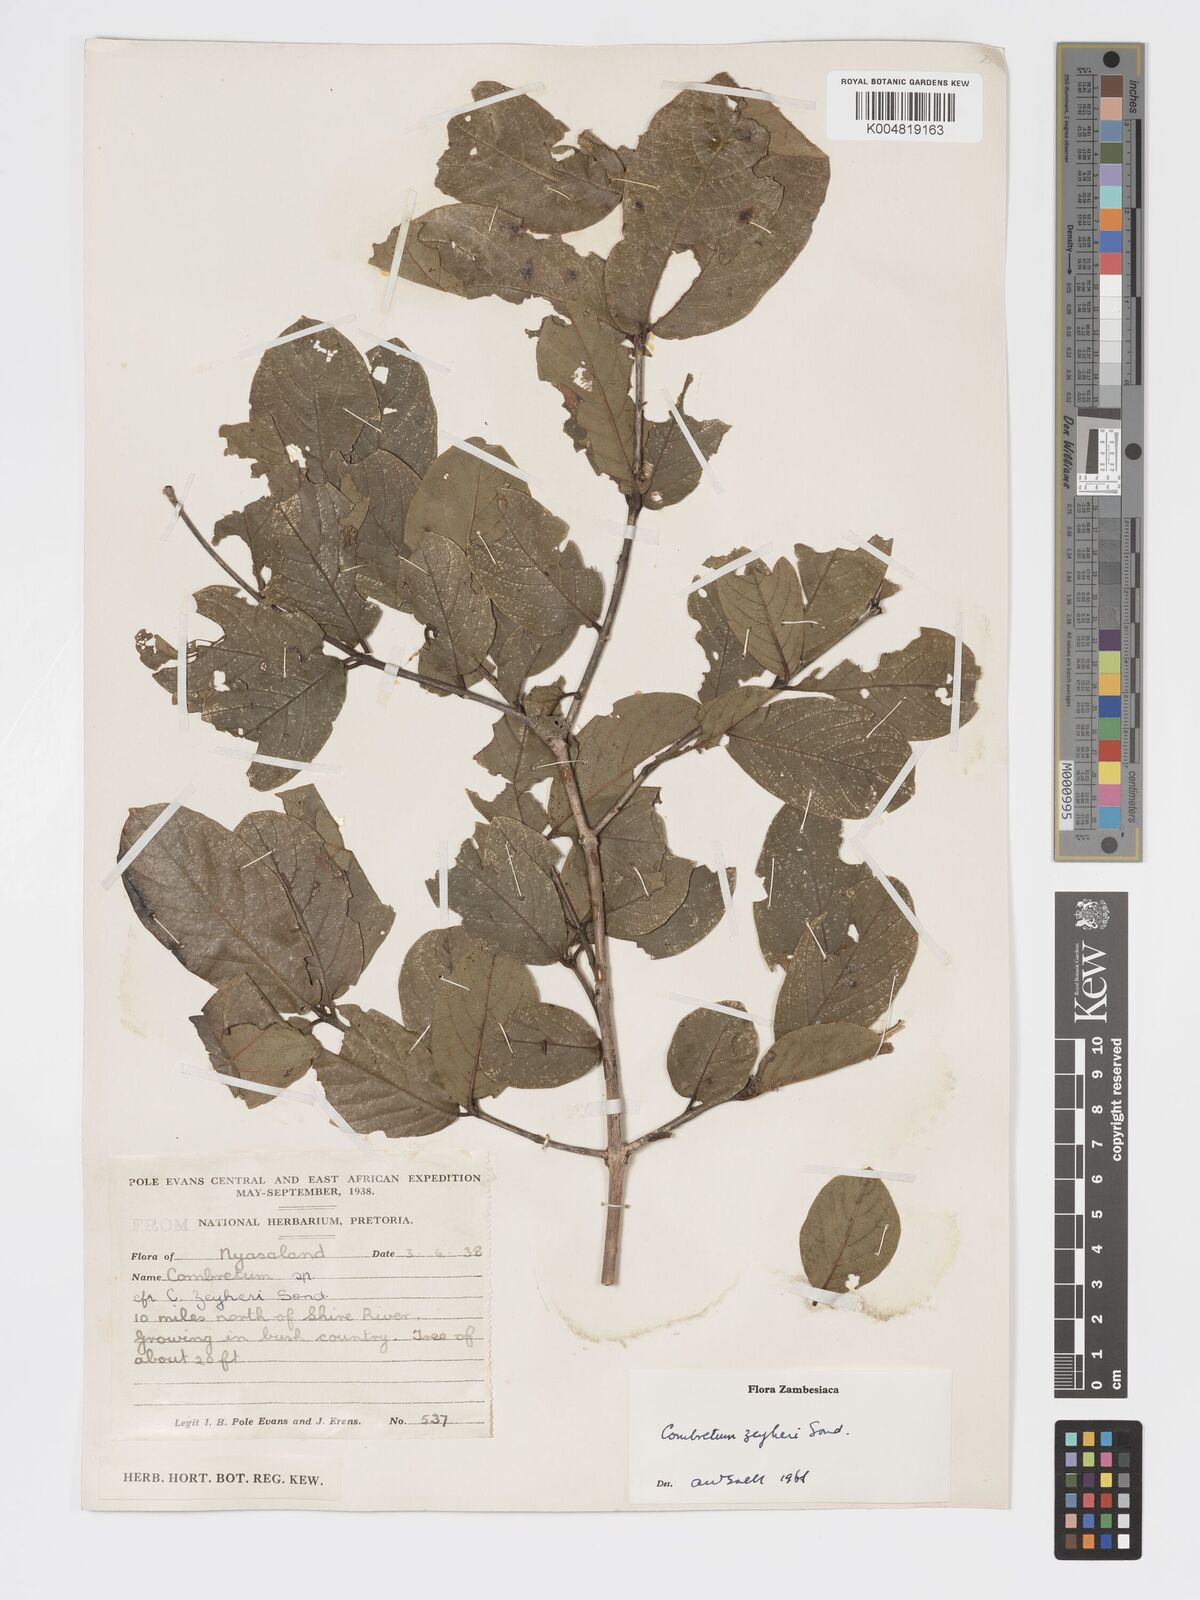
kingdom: Plantae
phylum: Tracheophyta
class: Magnoliopsida
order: Myrtales
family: Combretaceae
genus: Combretum
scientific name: Combretum zeyheri
